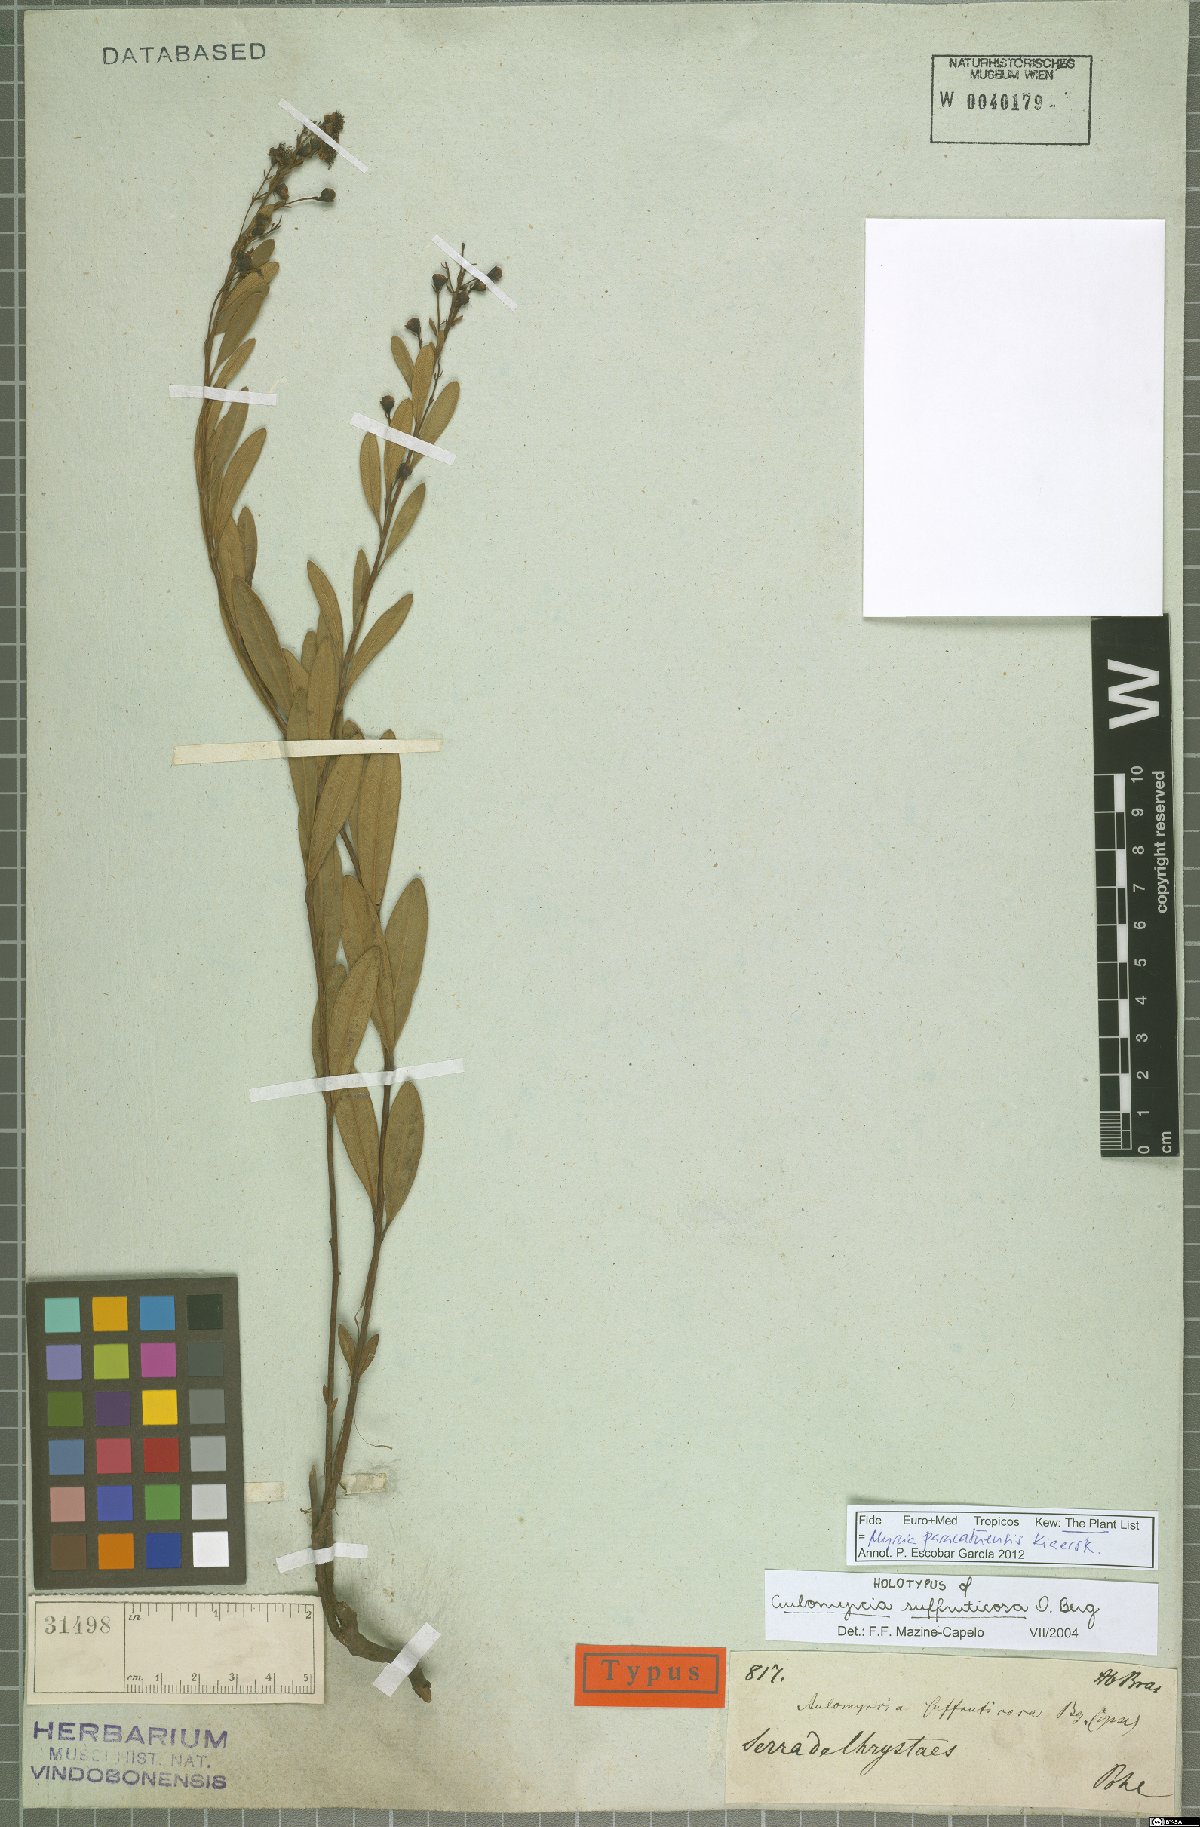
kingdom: Plantae
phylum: Tracheophyta
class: Magnoliopsida
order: Myrtales
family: Myrtaceae
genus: Myrcia
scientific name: Myrcia paracatuensis
